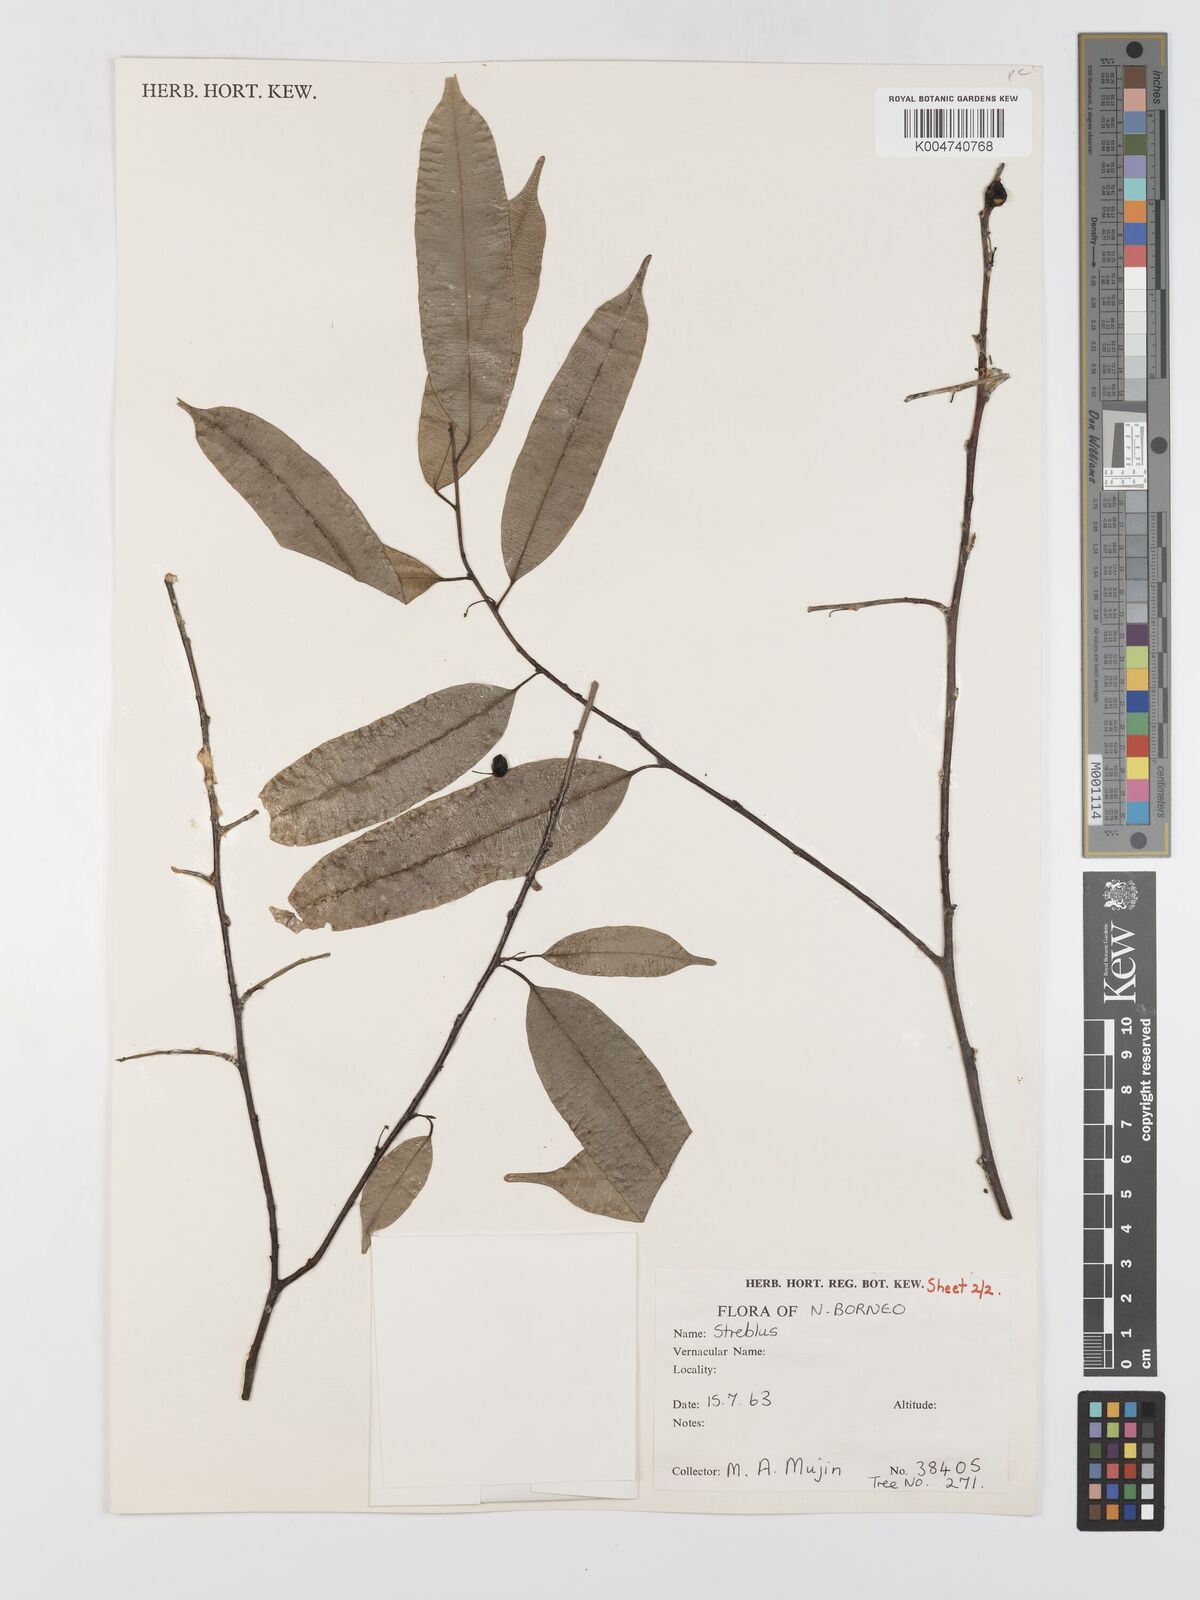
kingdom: Plantae
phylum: Tracheophyta
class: Magnoliopsida
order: Rosales
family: Moraceae
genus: Paratrophis
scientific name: Paratrophis glabra
